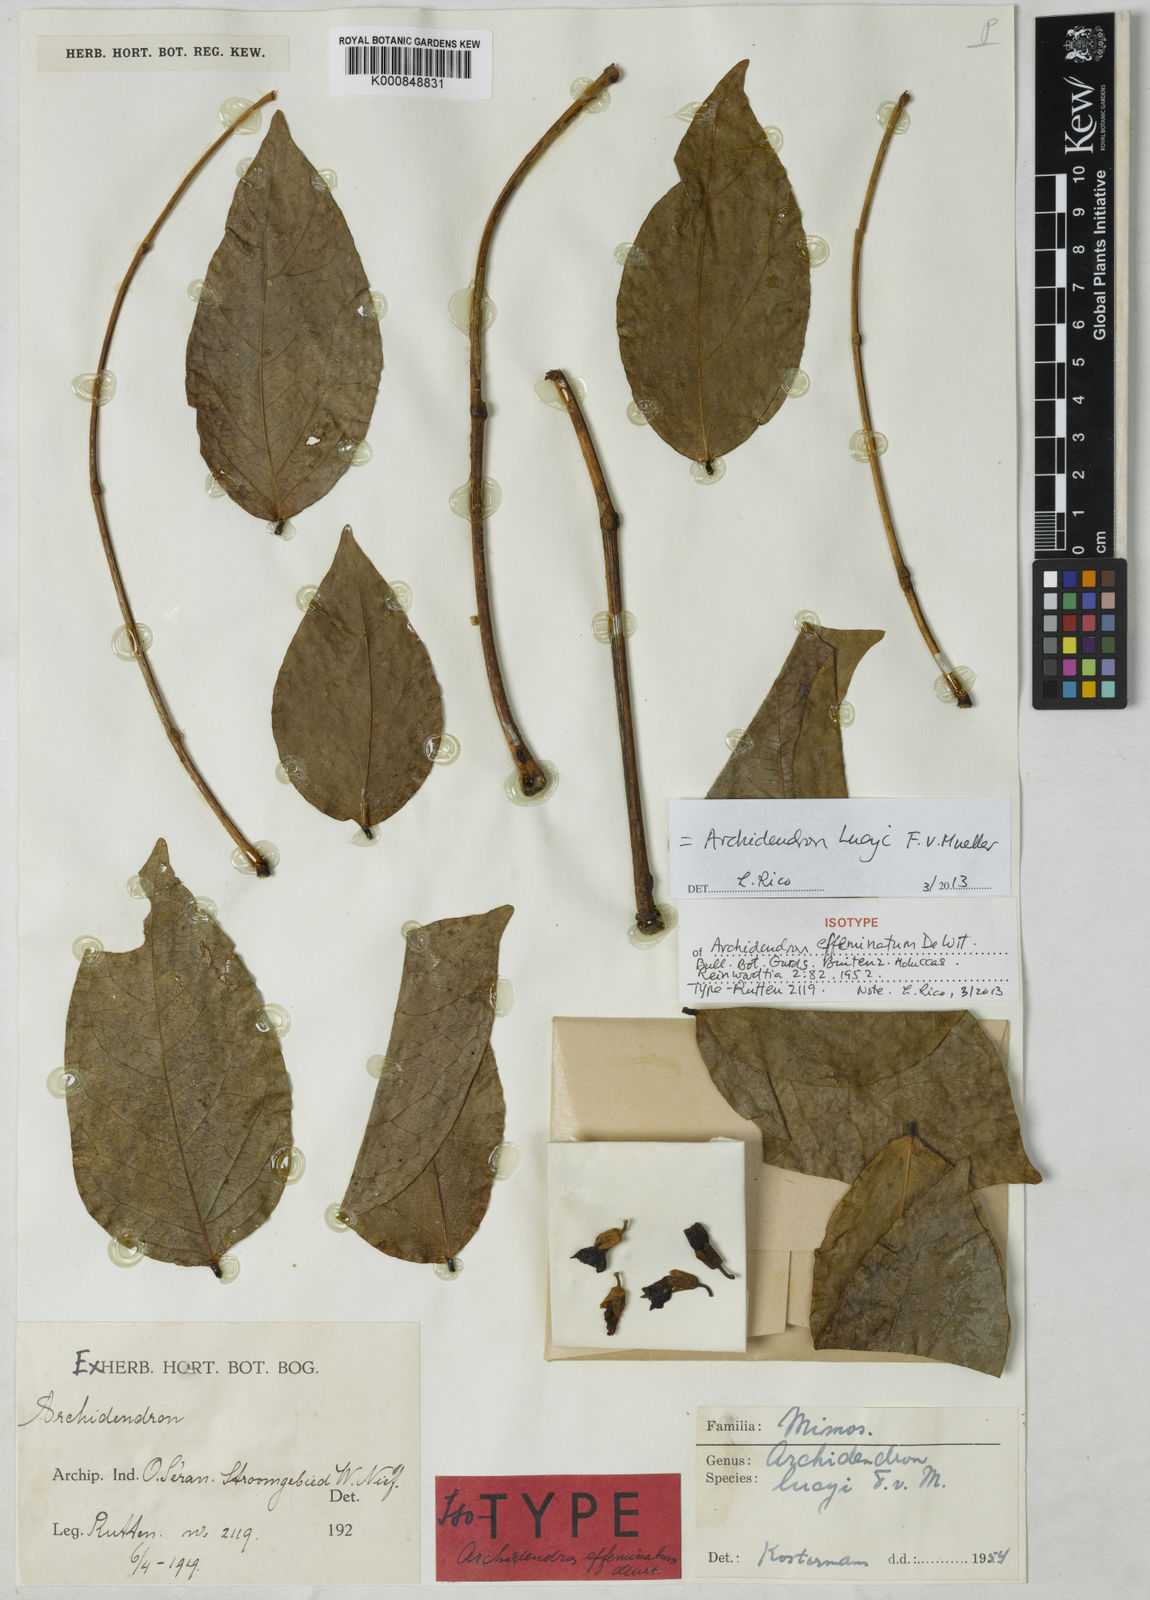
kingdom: Plantae
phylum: Tracheophyta
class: Magnoliopsida
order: Fabales
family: Fabaceae
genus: Archidendron
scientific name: Archidendron lucyi
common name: Scarlet bean
